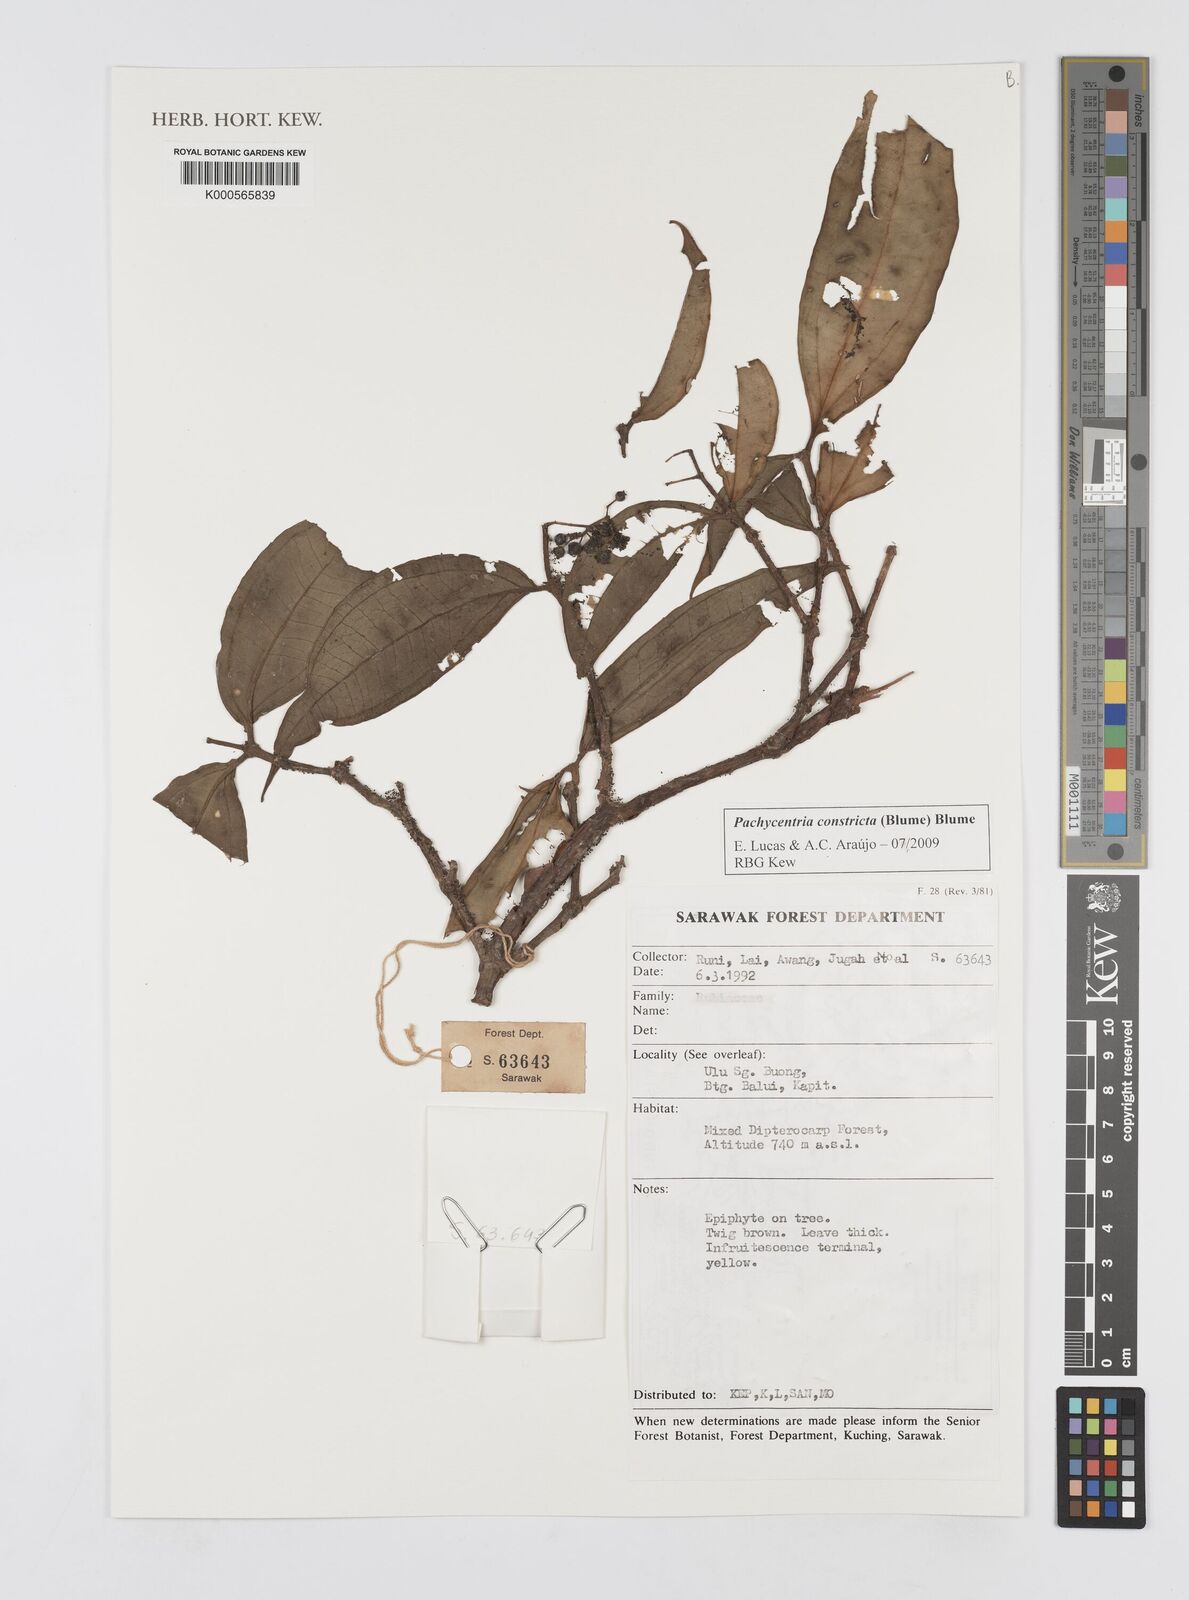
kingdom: Plantae
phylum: Tracheophyta
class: Magnoliopsida
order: Myrtales
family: Melastomataceae
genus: Pachycentria
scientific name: Pachycentria constricta
